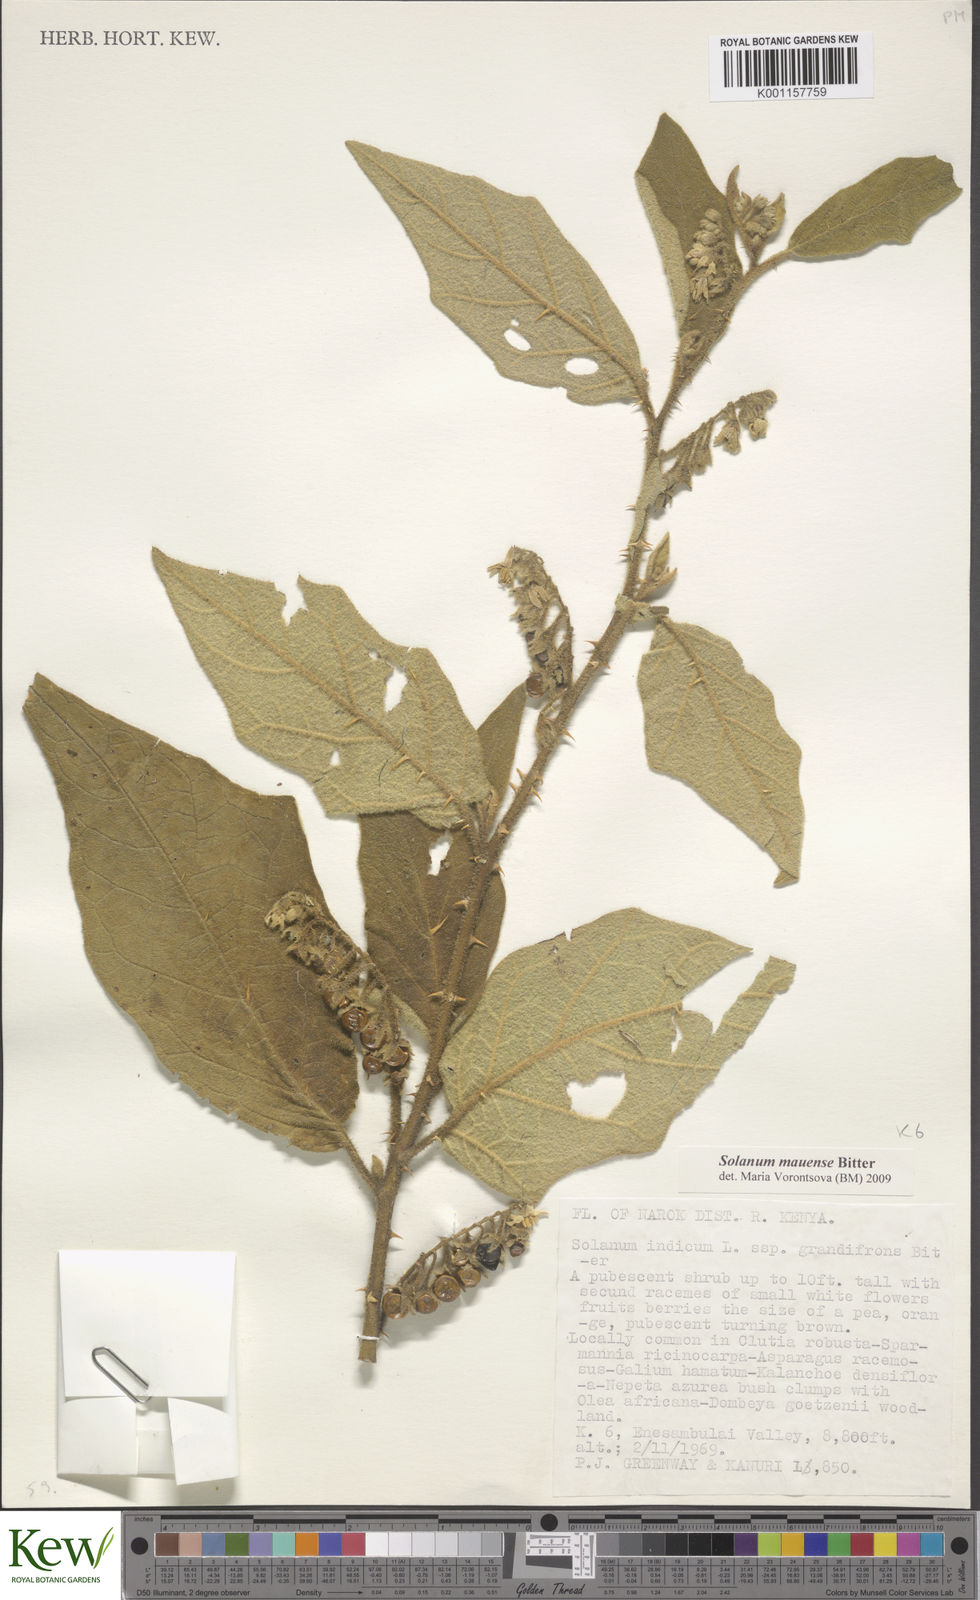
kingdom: Plantae
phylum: Tracheophyta
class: Magnoliopsida
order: Solanales
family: Solanaceae
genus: Solanum
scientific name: Solanum mauense
